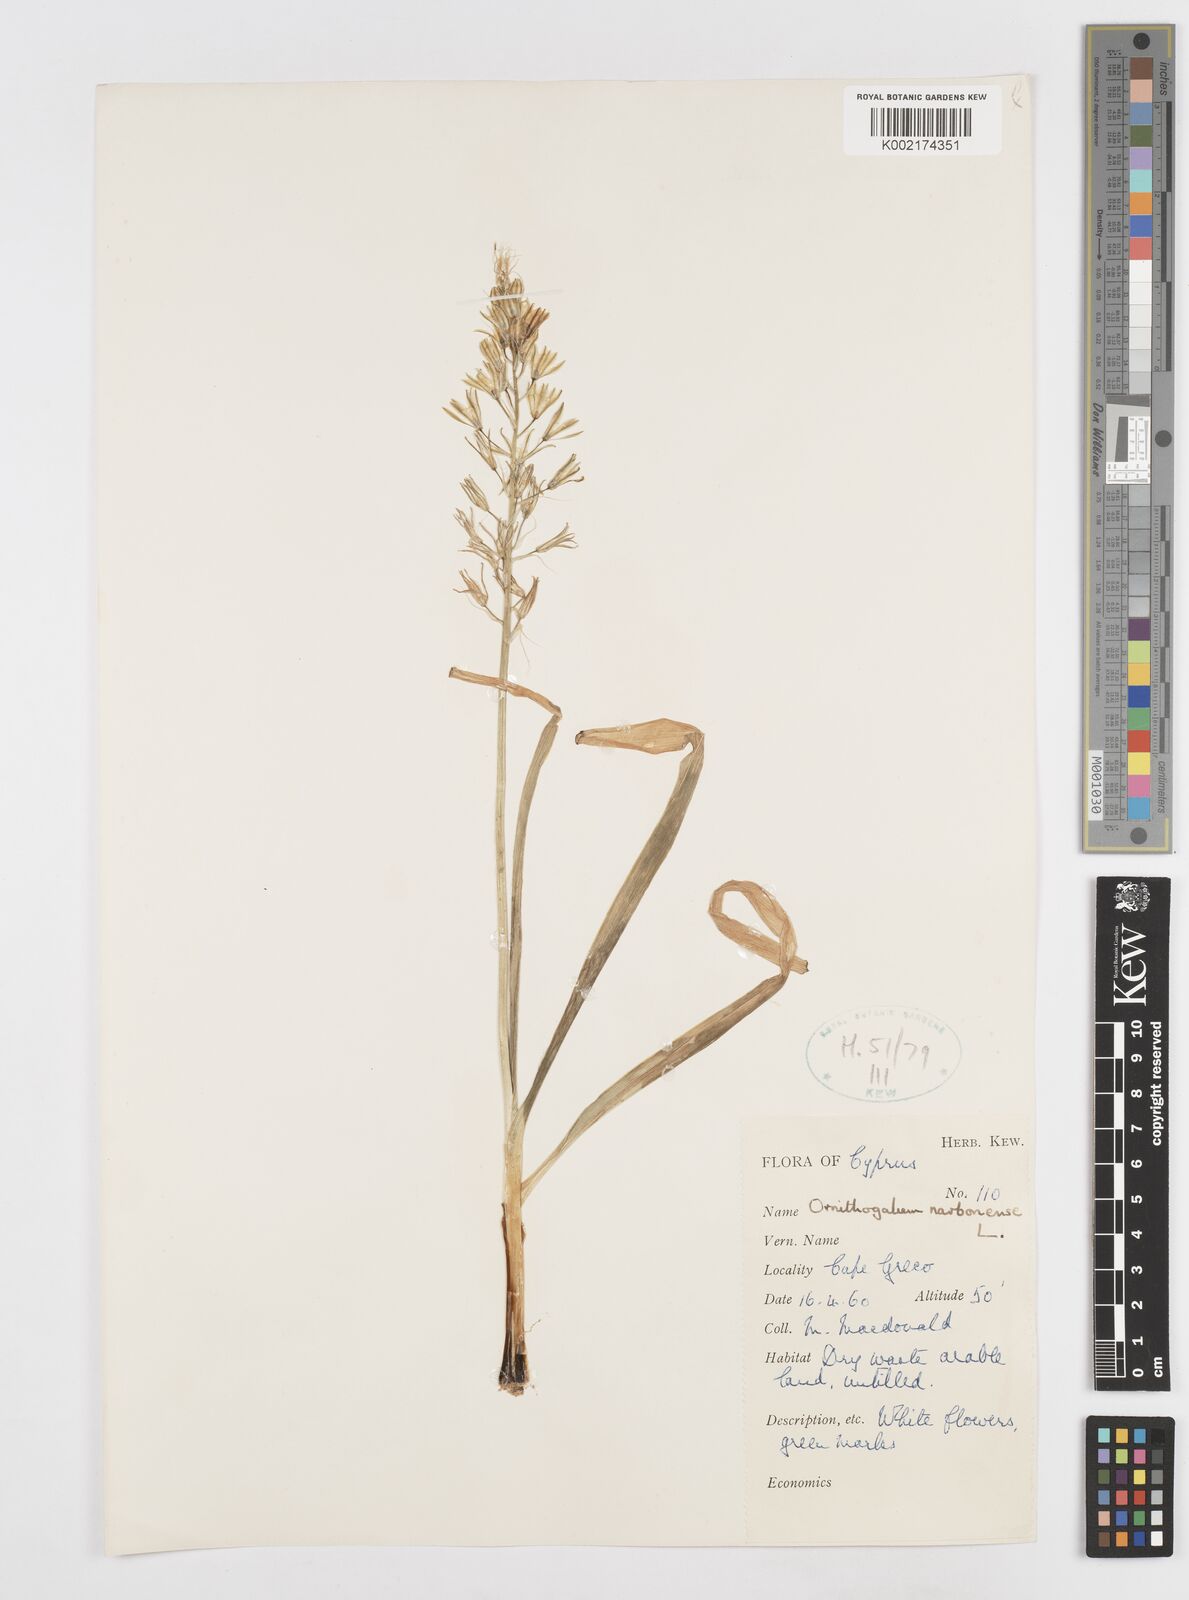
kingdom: Plantae
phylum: Tracheophyta
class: Liliopsida
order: Asparagales
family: Asparagaceae
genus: Ornithogalum
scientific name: Ornithogalum narbonense
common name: Bath-asparagus
